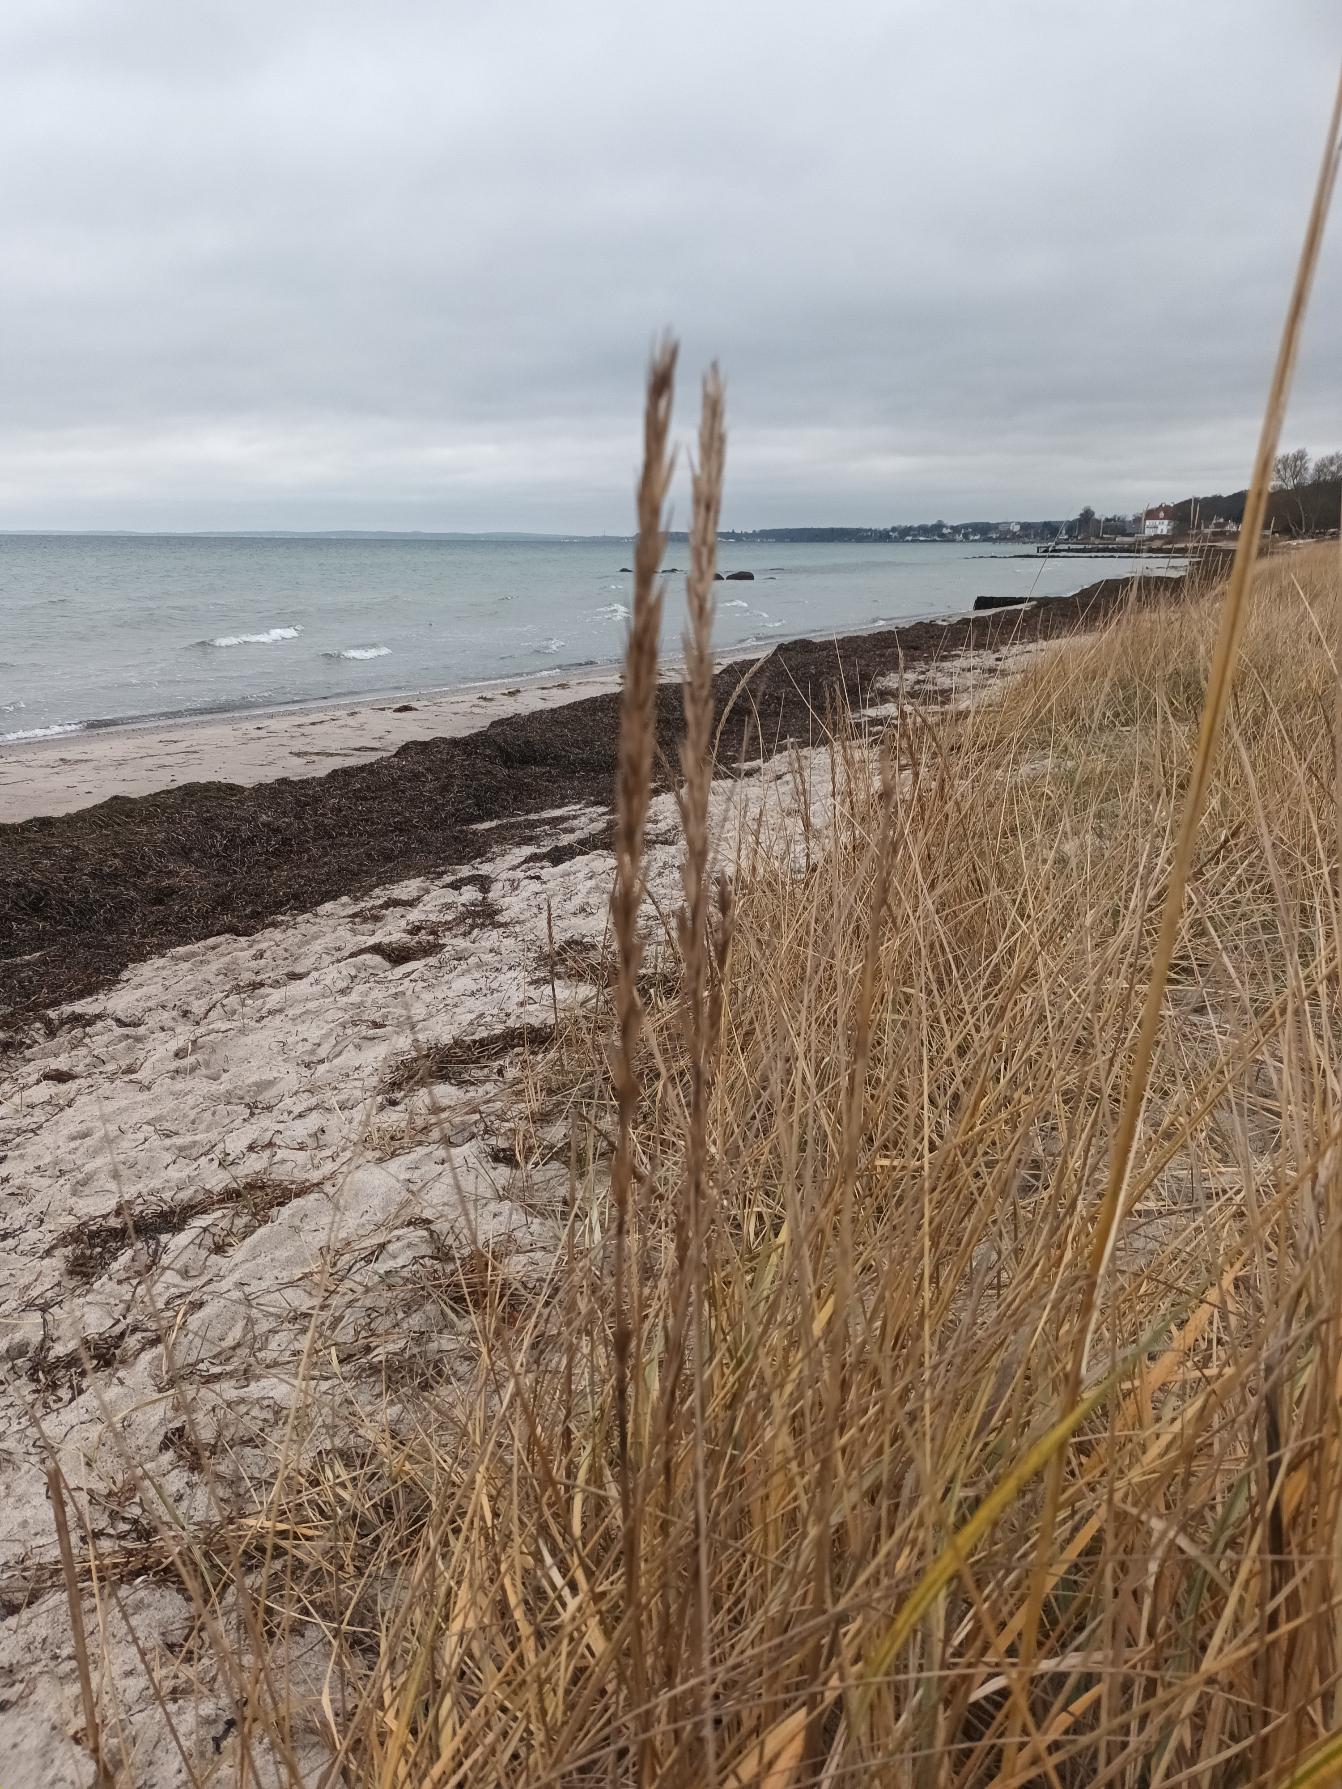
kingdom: Plantae
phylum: Tracheophyta
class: Liliopsida
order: Poales
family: Poaceae
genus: Leymus
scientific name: Leymus arenarius
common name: Marehalm
